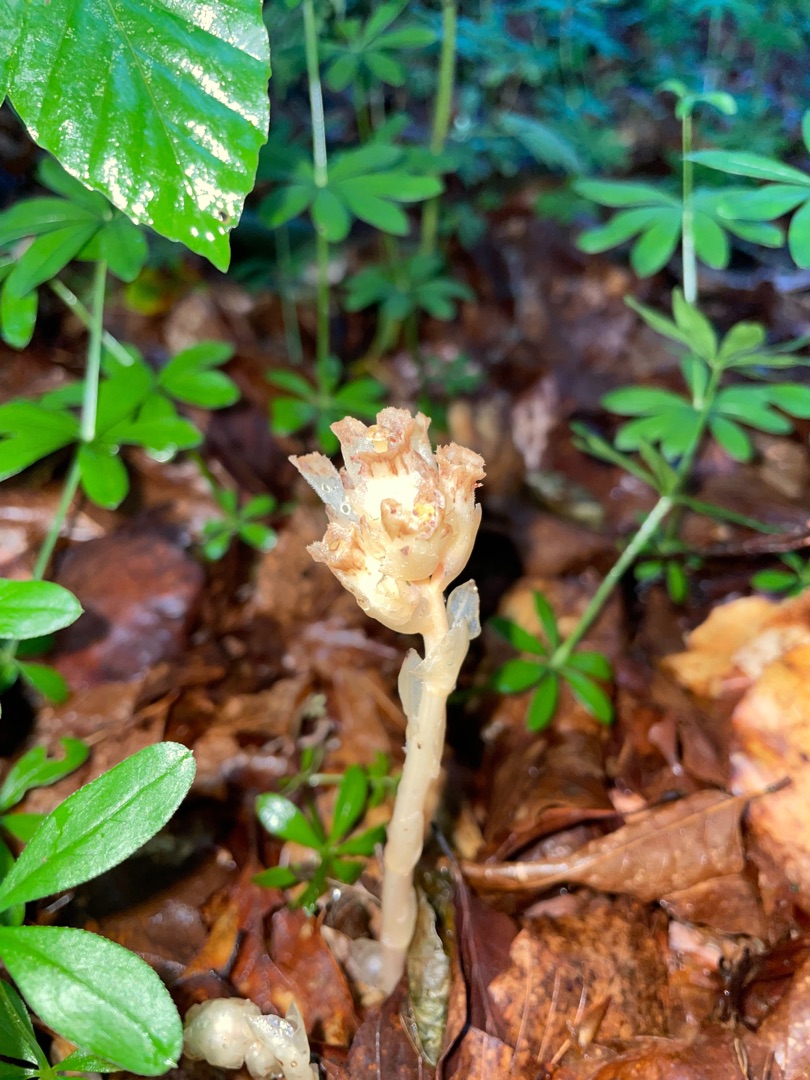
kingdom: Plantae
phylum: Tracheophyta
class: Magnoliopsida
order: Ericales
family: Ericaceae
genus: Hypopitys
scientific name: Hypopitys monotropa
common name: Snylterod
